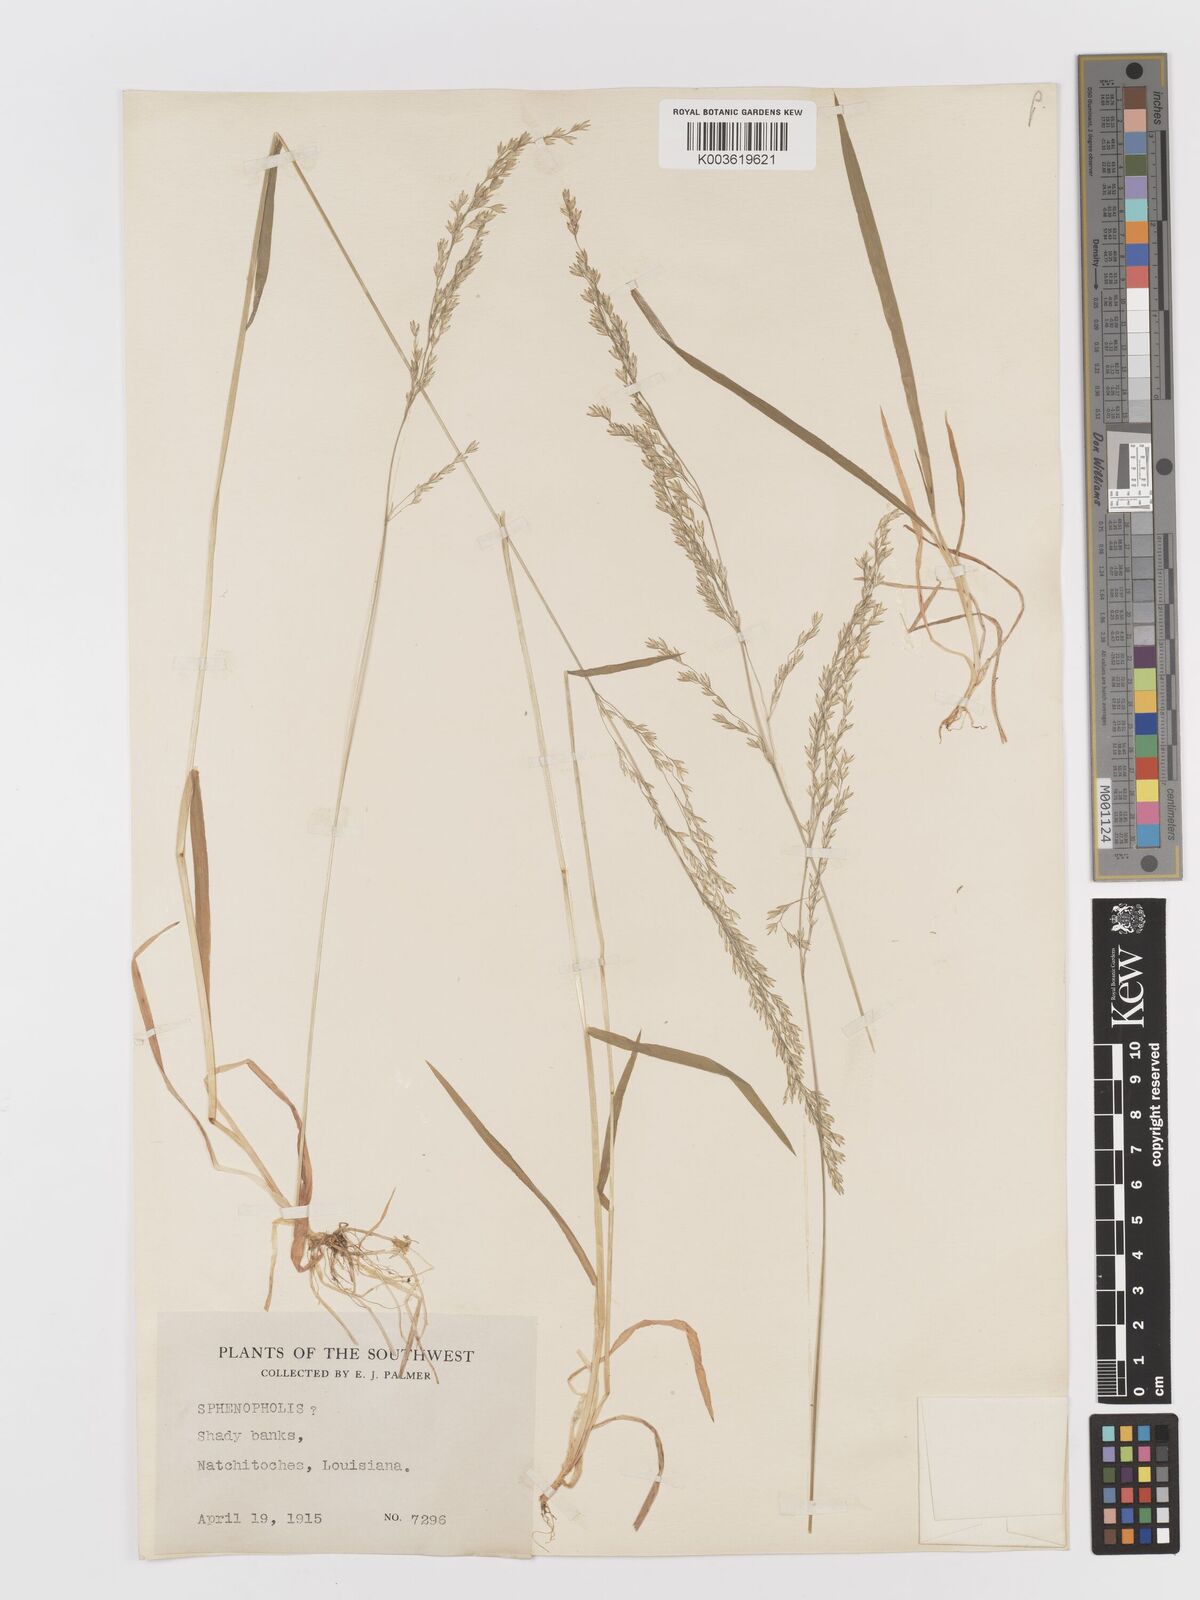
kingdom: Plantae
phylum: Tracheophyta
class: Liliopsida
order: Poales
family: Poaceae
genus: Sphenopholis
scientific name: Sphenopholis obtusata
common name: Prairie grass
